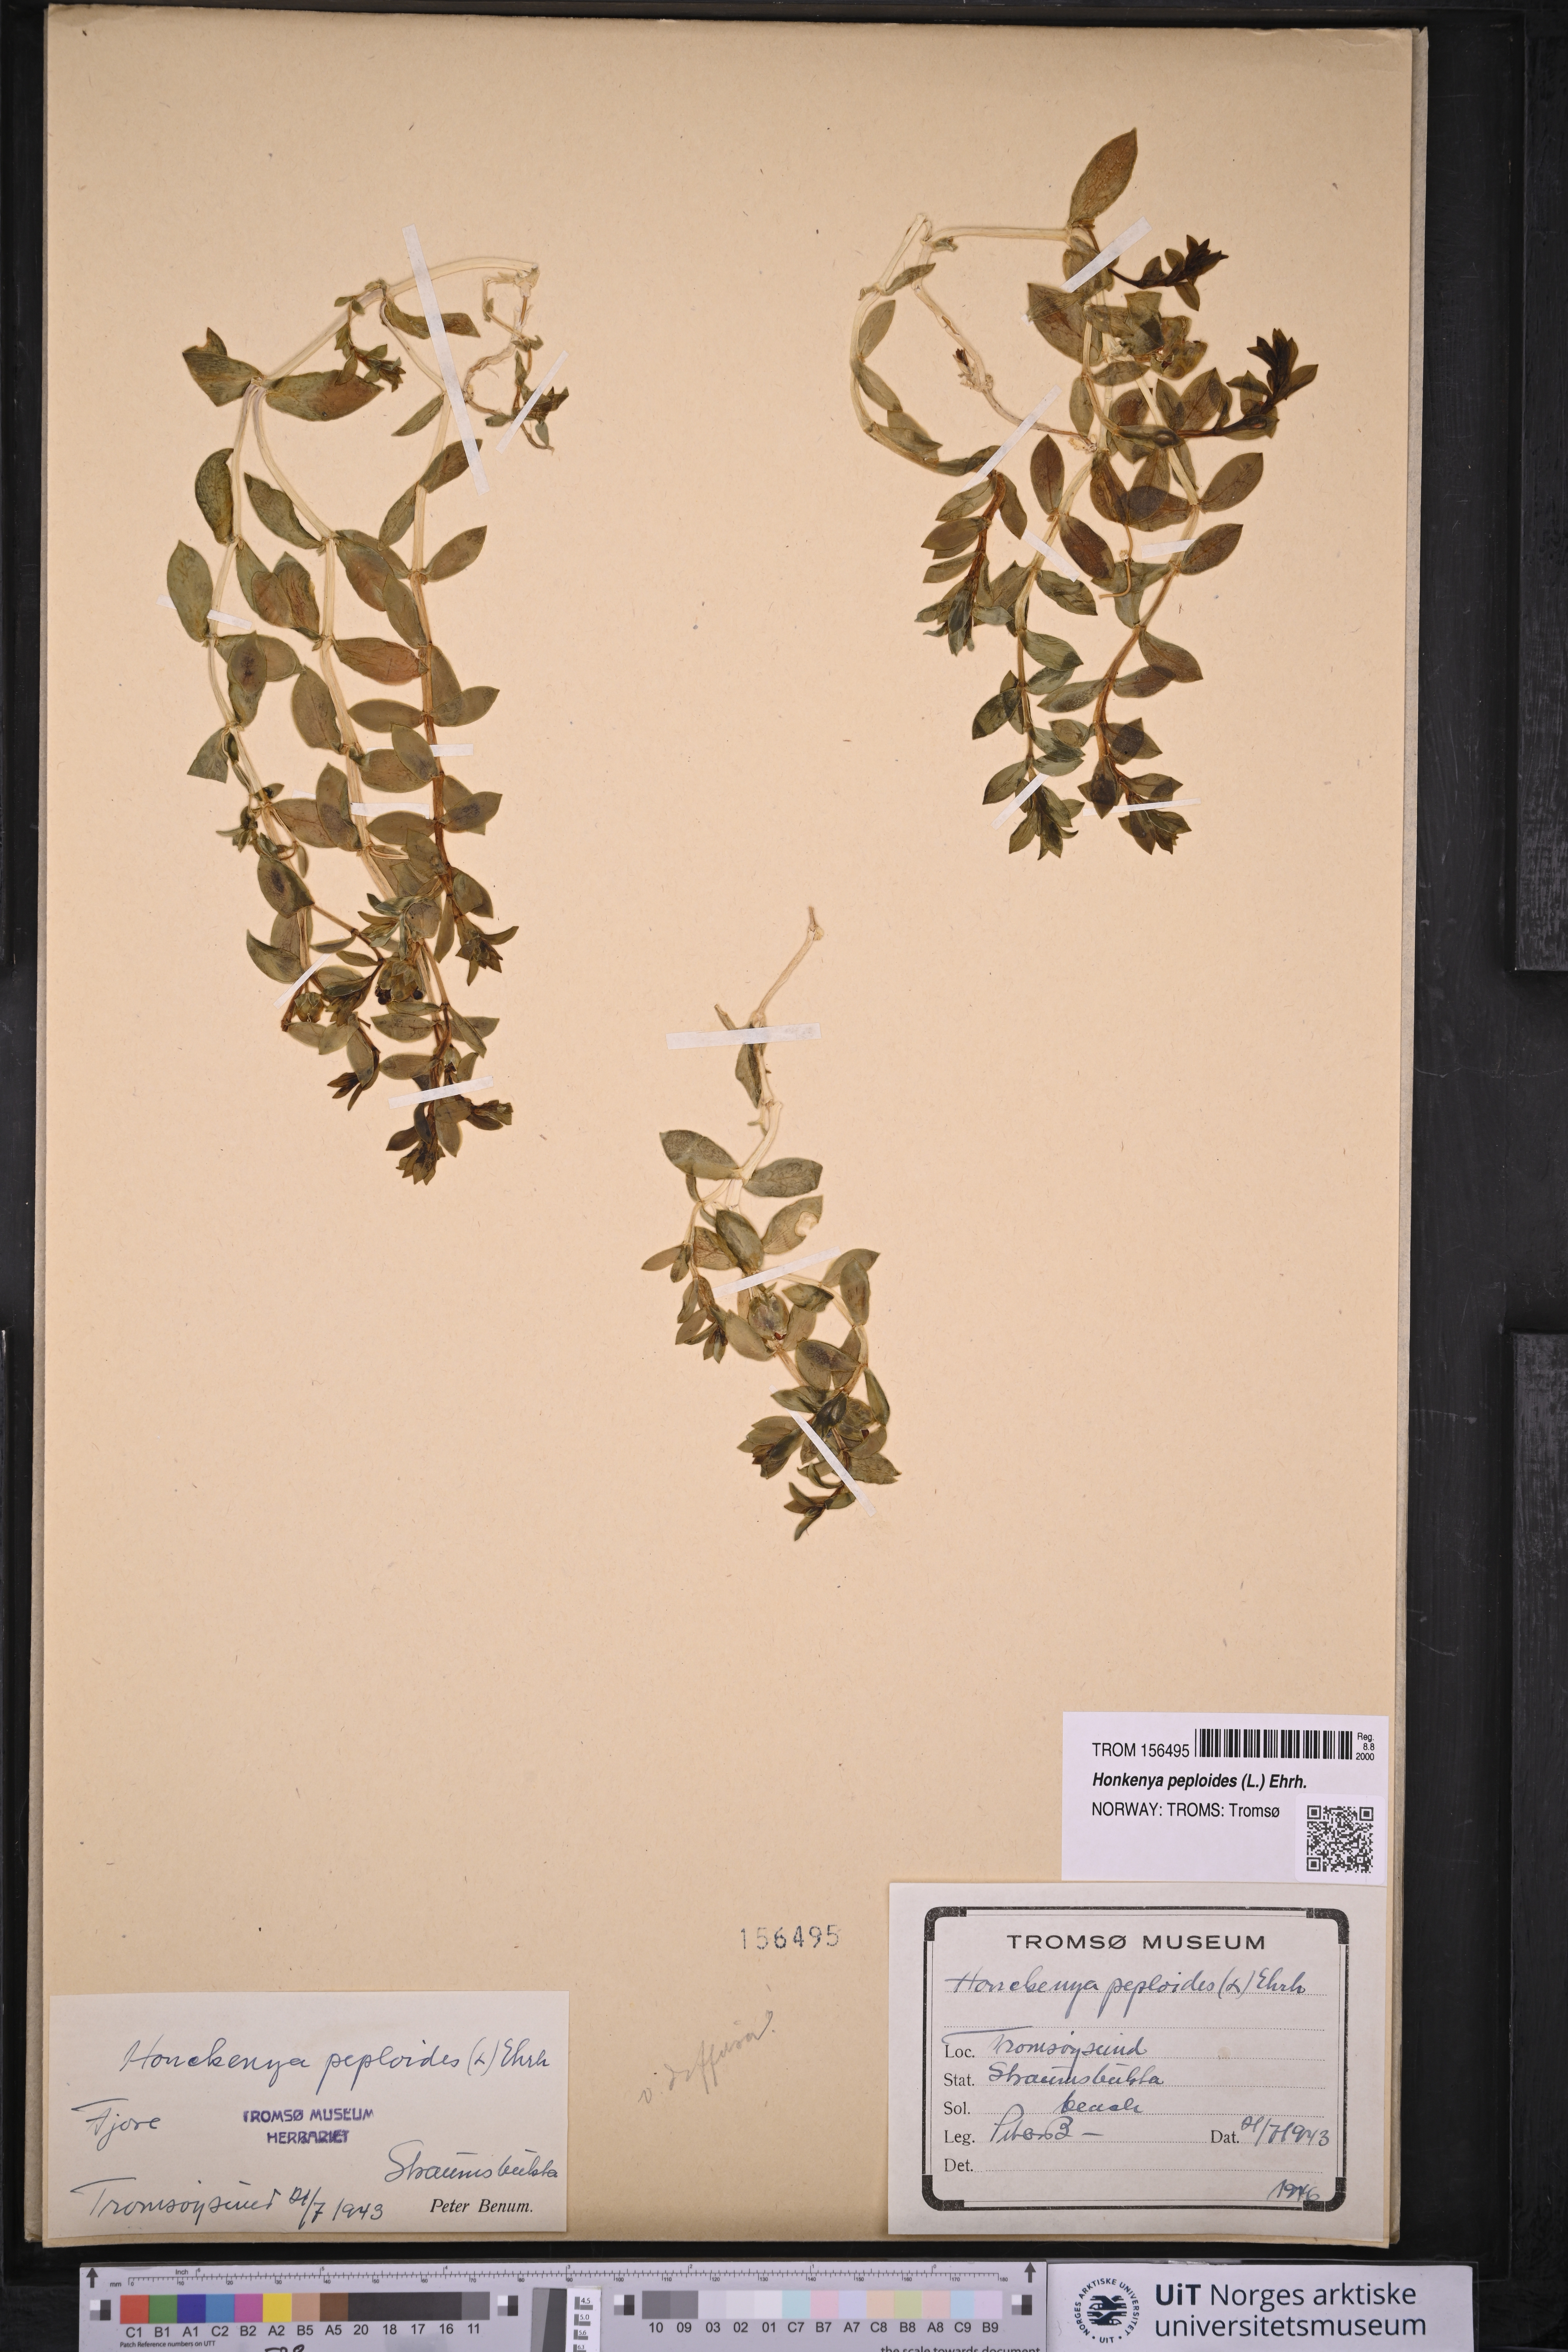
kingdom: Plantae
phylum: Tracheophyta
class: Magnoliopsida
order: Caryophyllales
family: Caryophyllaceae
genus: Honckenya
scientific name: Honckenya peploides
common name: Sea sandwort
